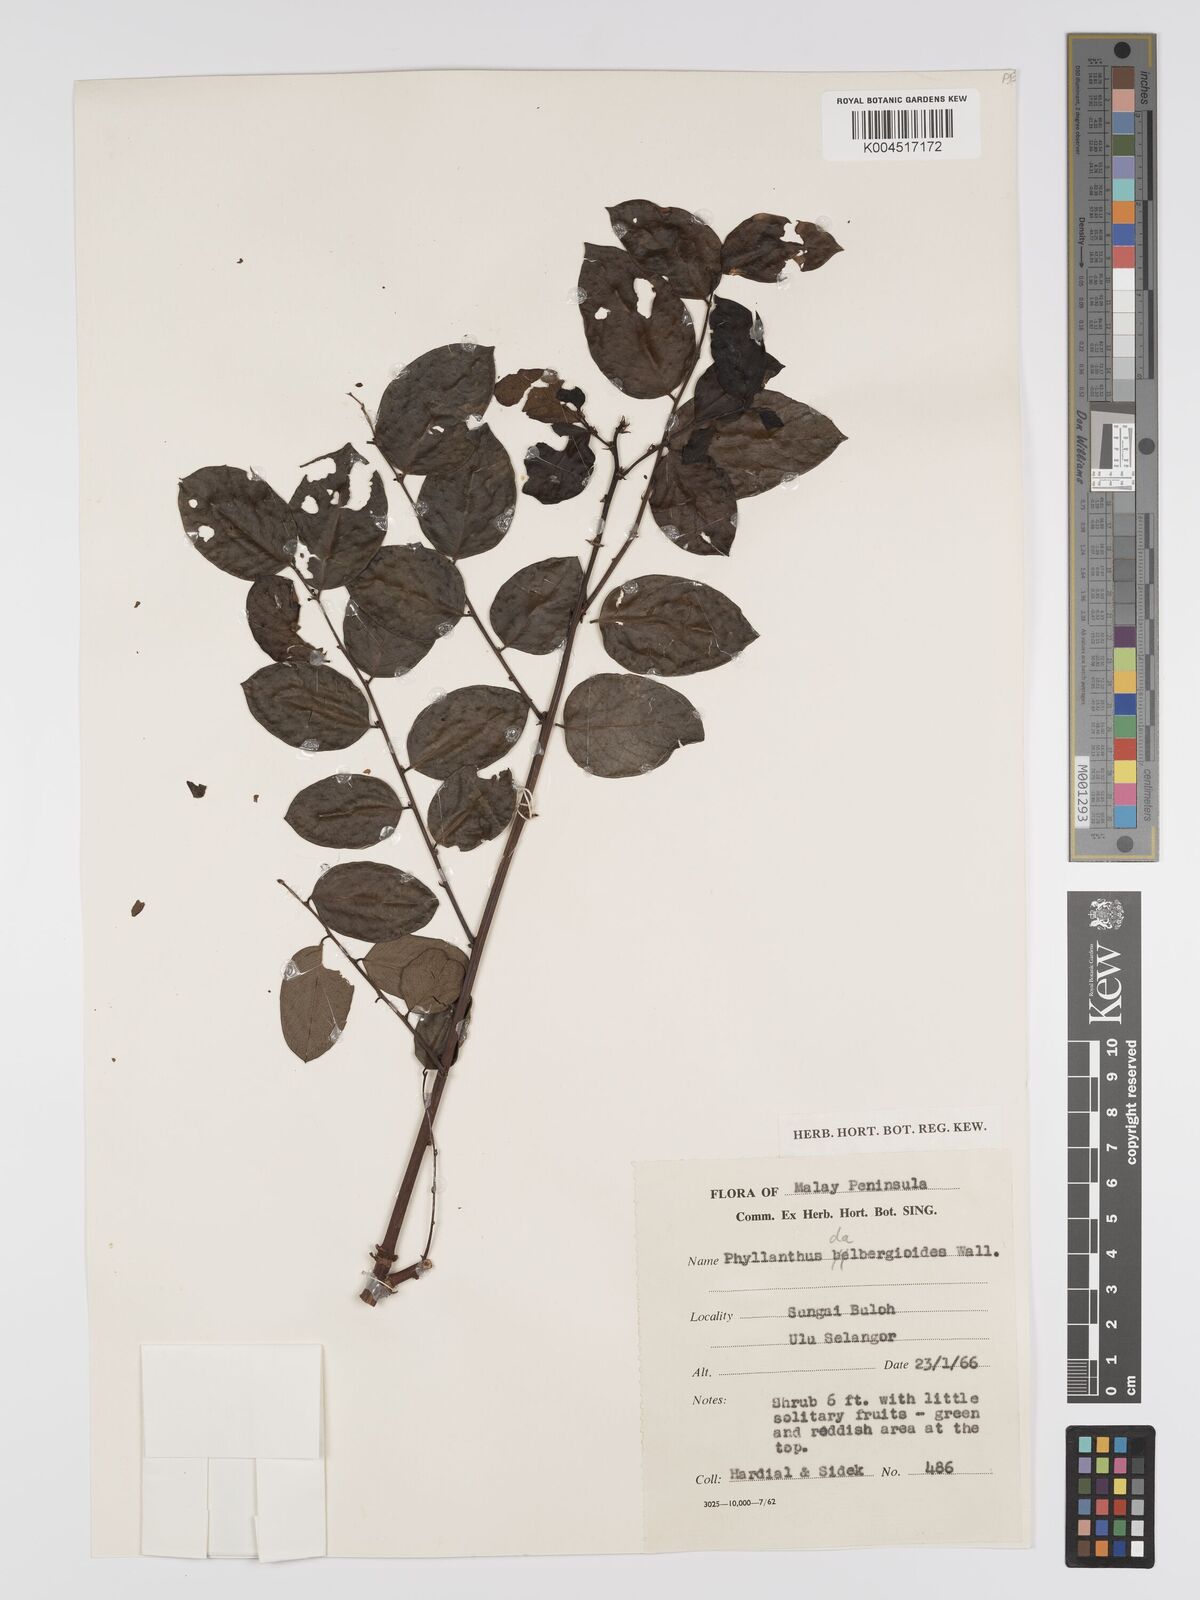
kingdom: Plantae
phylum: Tracheophyta
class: Magnoliopsida
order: Malpighiales
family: Phyllanthaceae
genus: Phyllanthus
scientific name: Phyllanthus microcarpus
